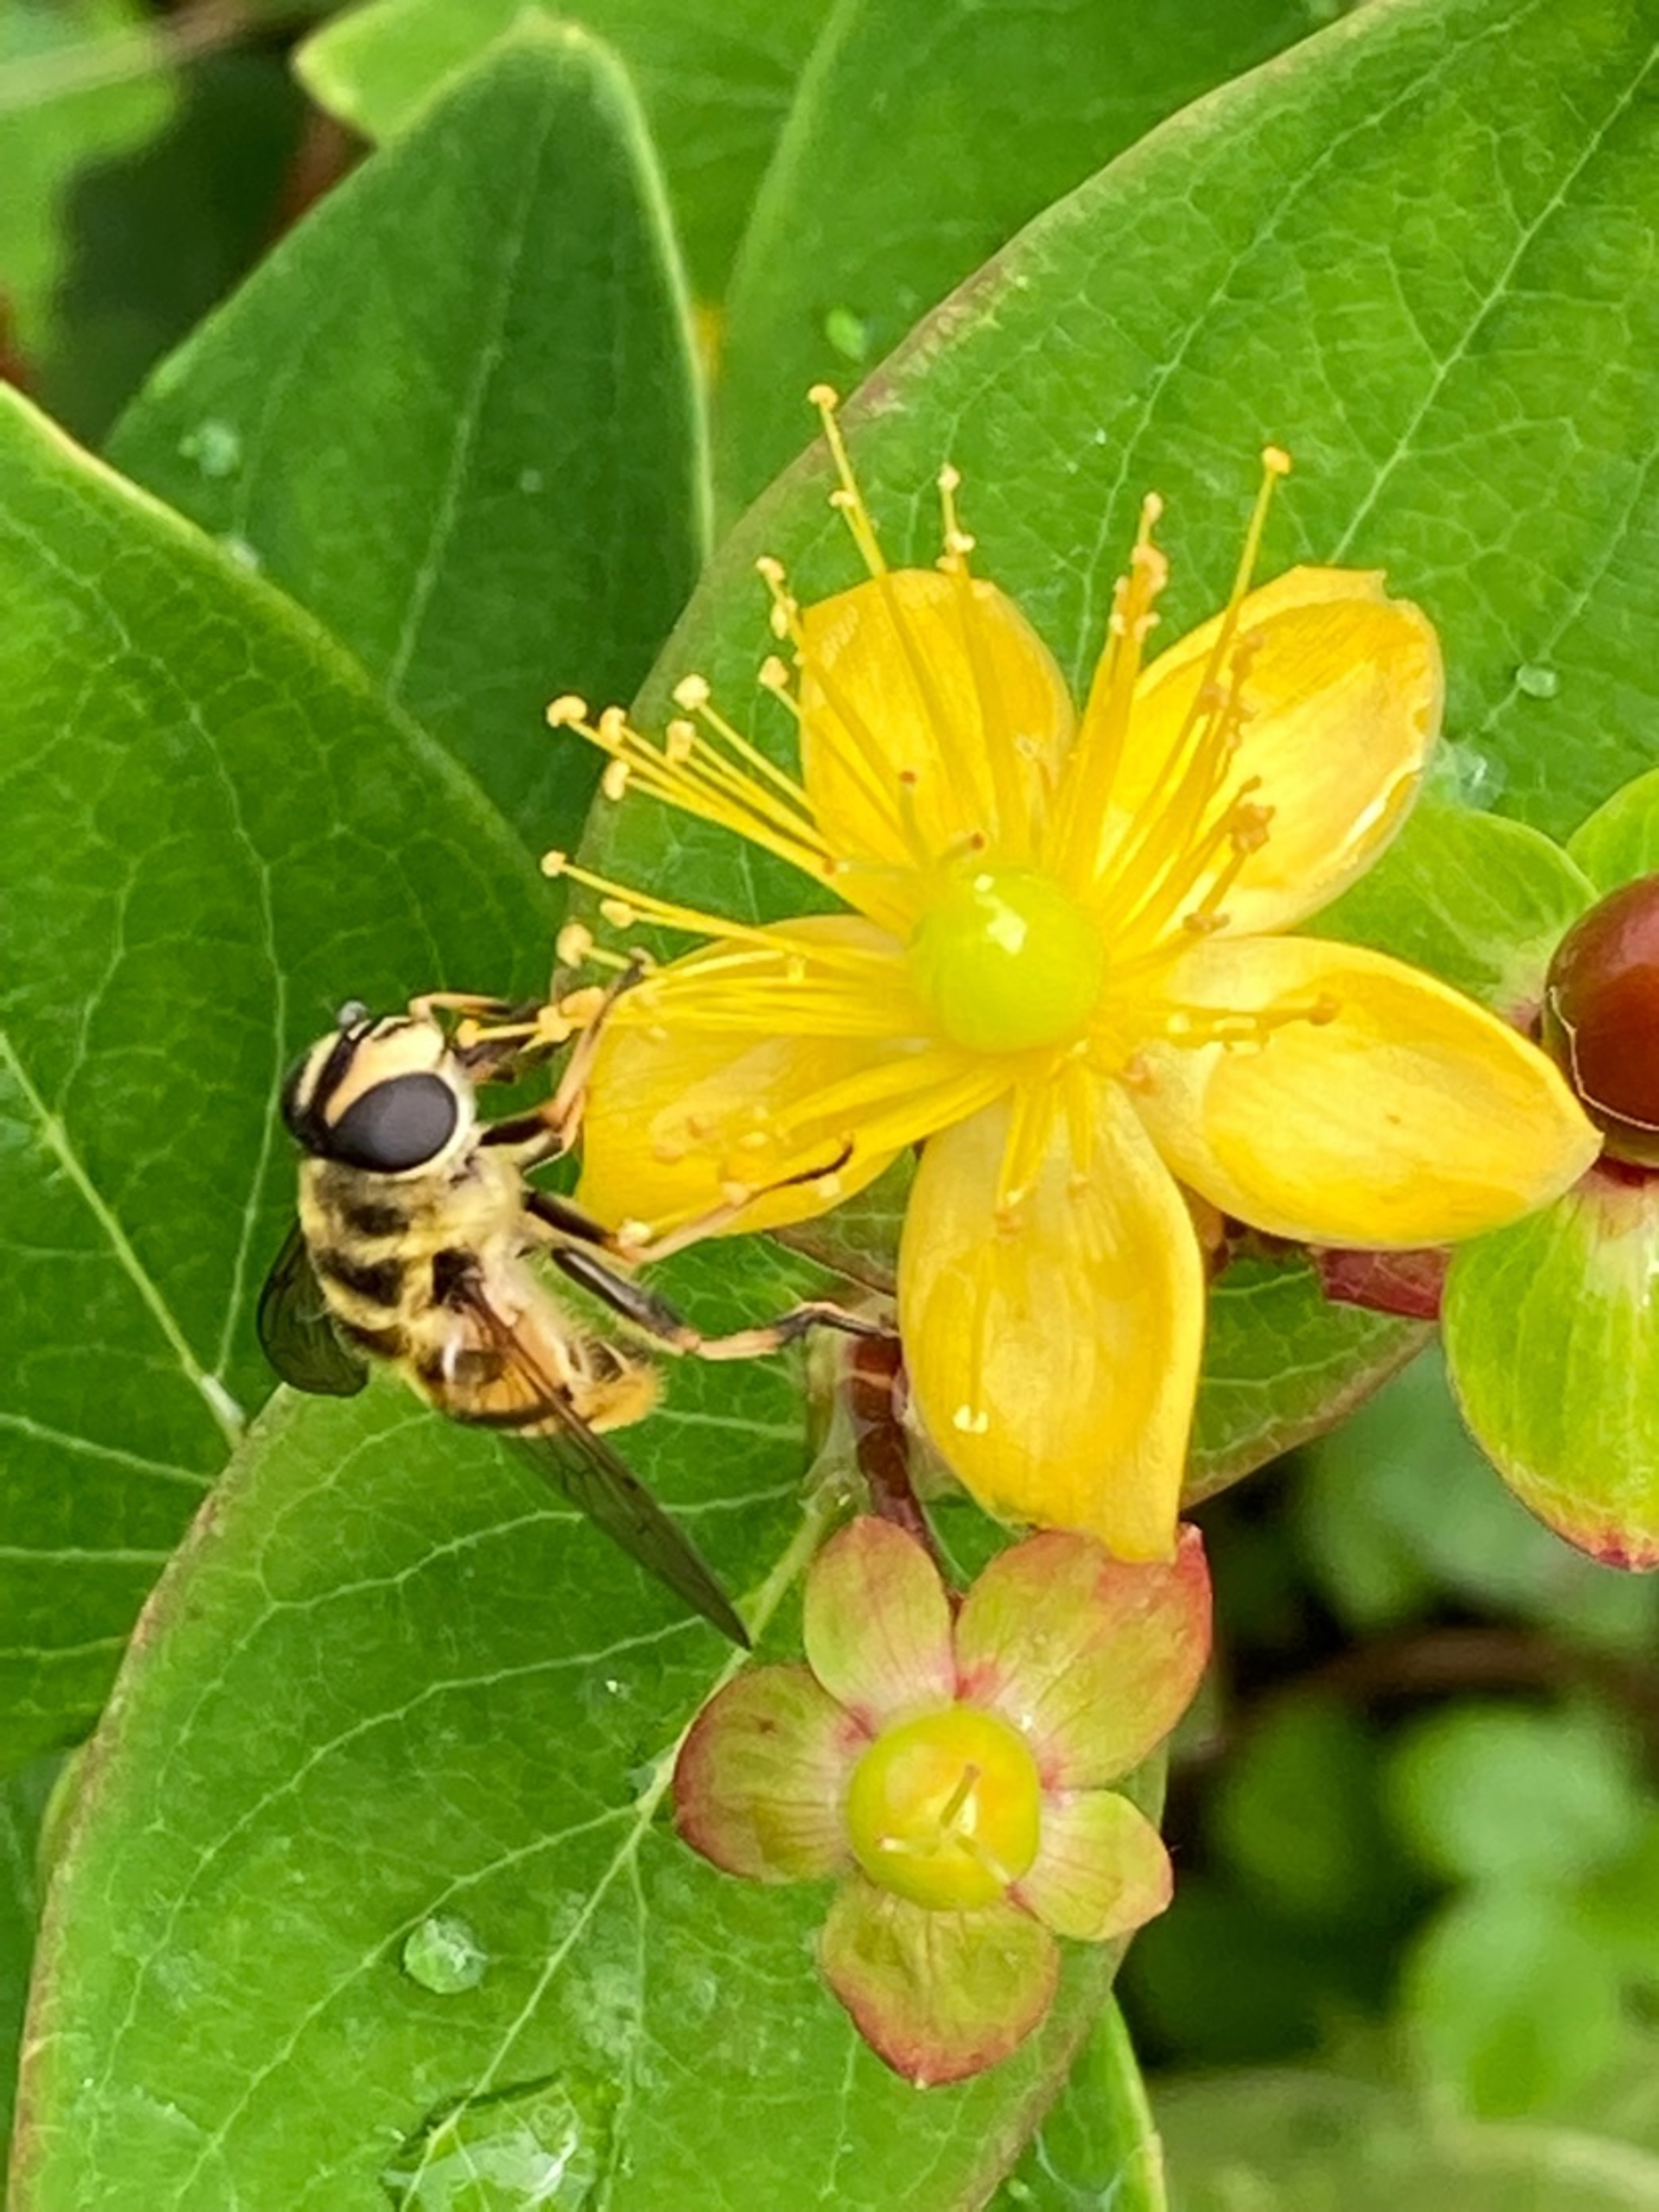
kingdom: Animalia
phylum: Arthropoda
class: Insecta
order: Diptera
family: Syrphidae
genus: Myathropa
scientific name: Myathropa florea
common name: Dødningehoved-svirreflue
